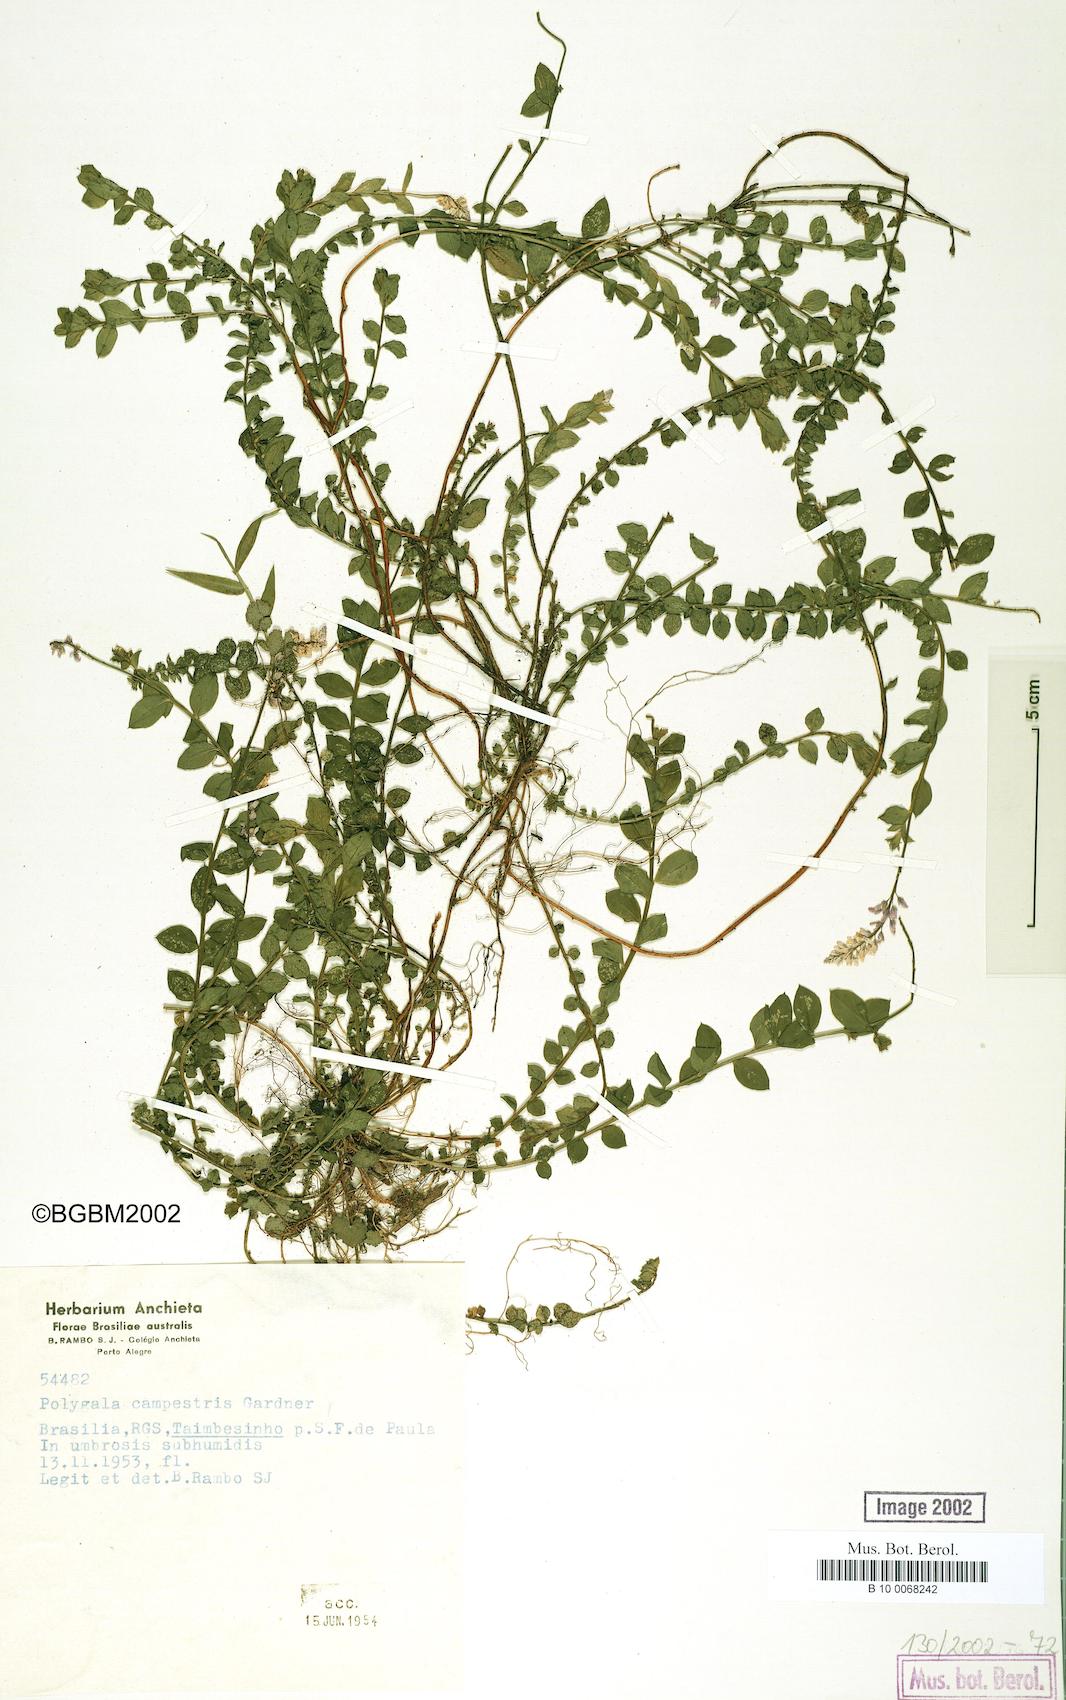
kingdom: Plantae
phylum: Tracheophyta
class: Magnoliopsida
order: Fabales
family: Polygalaceae
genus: Polygala
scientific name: Polygala campestris
